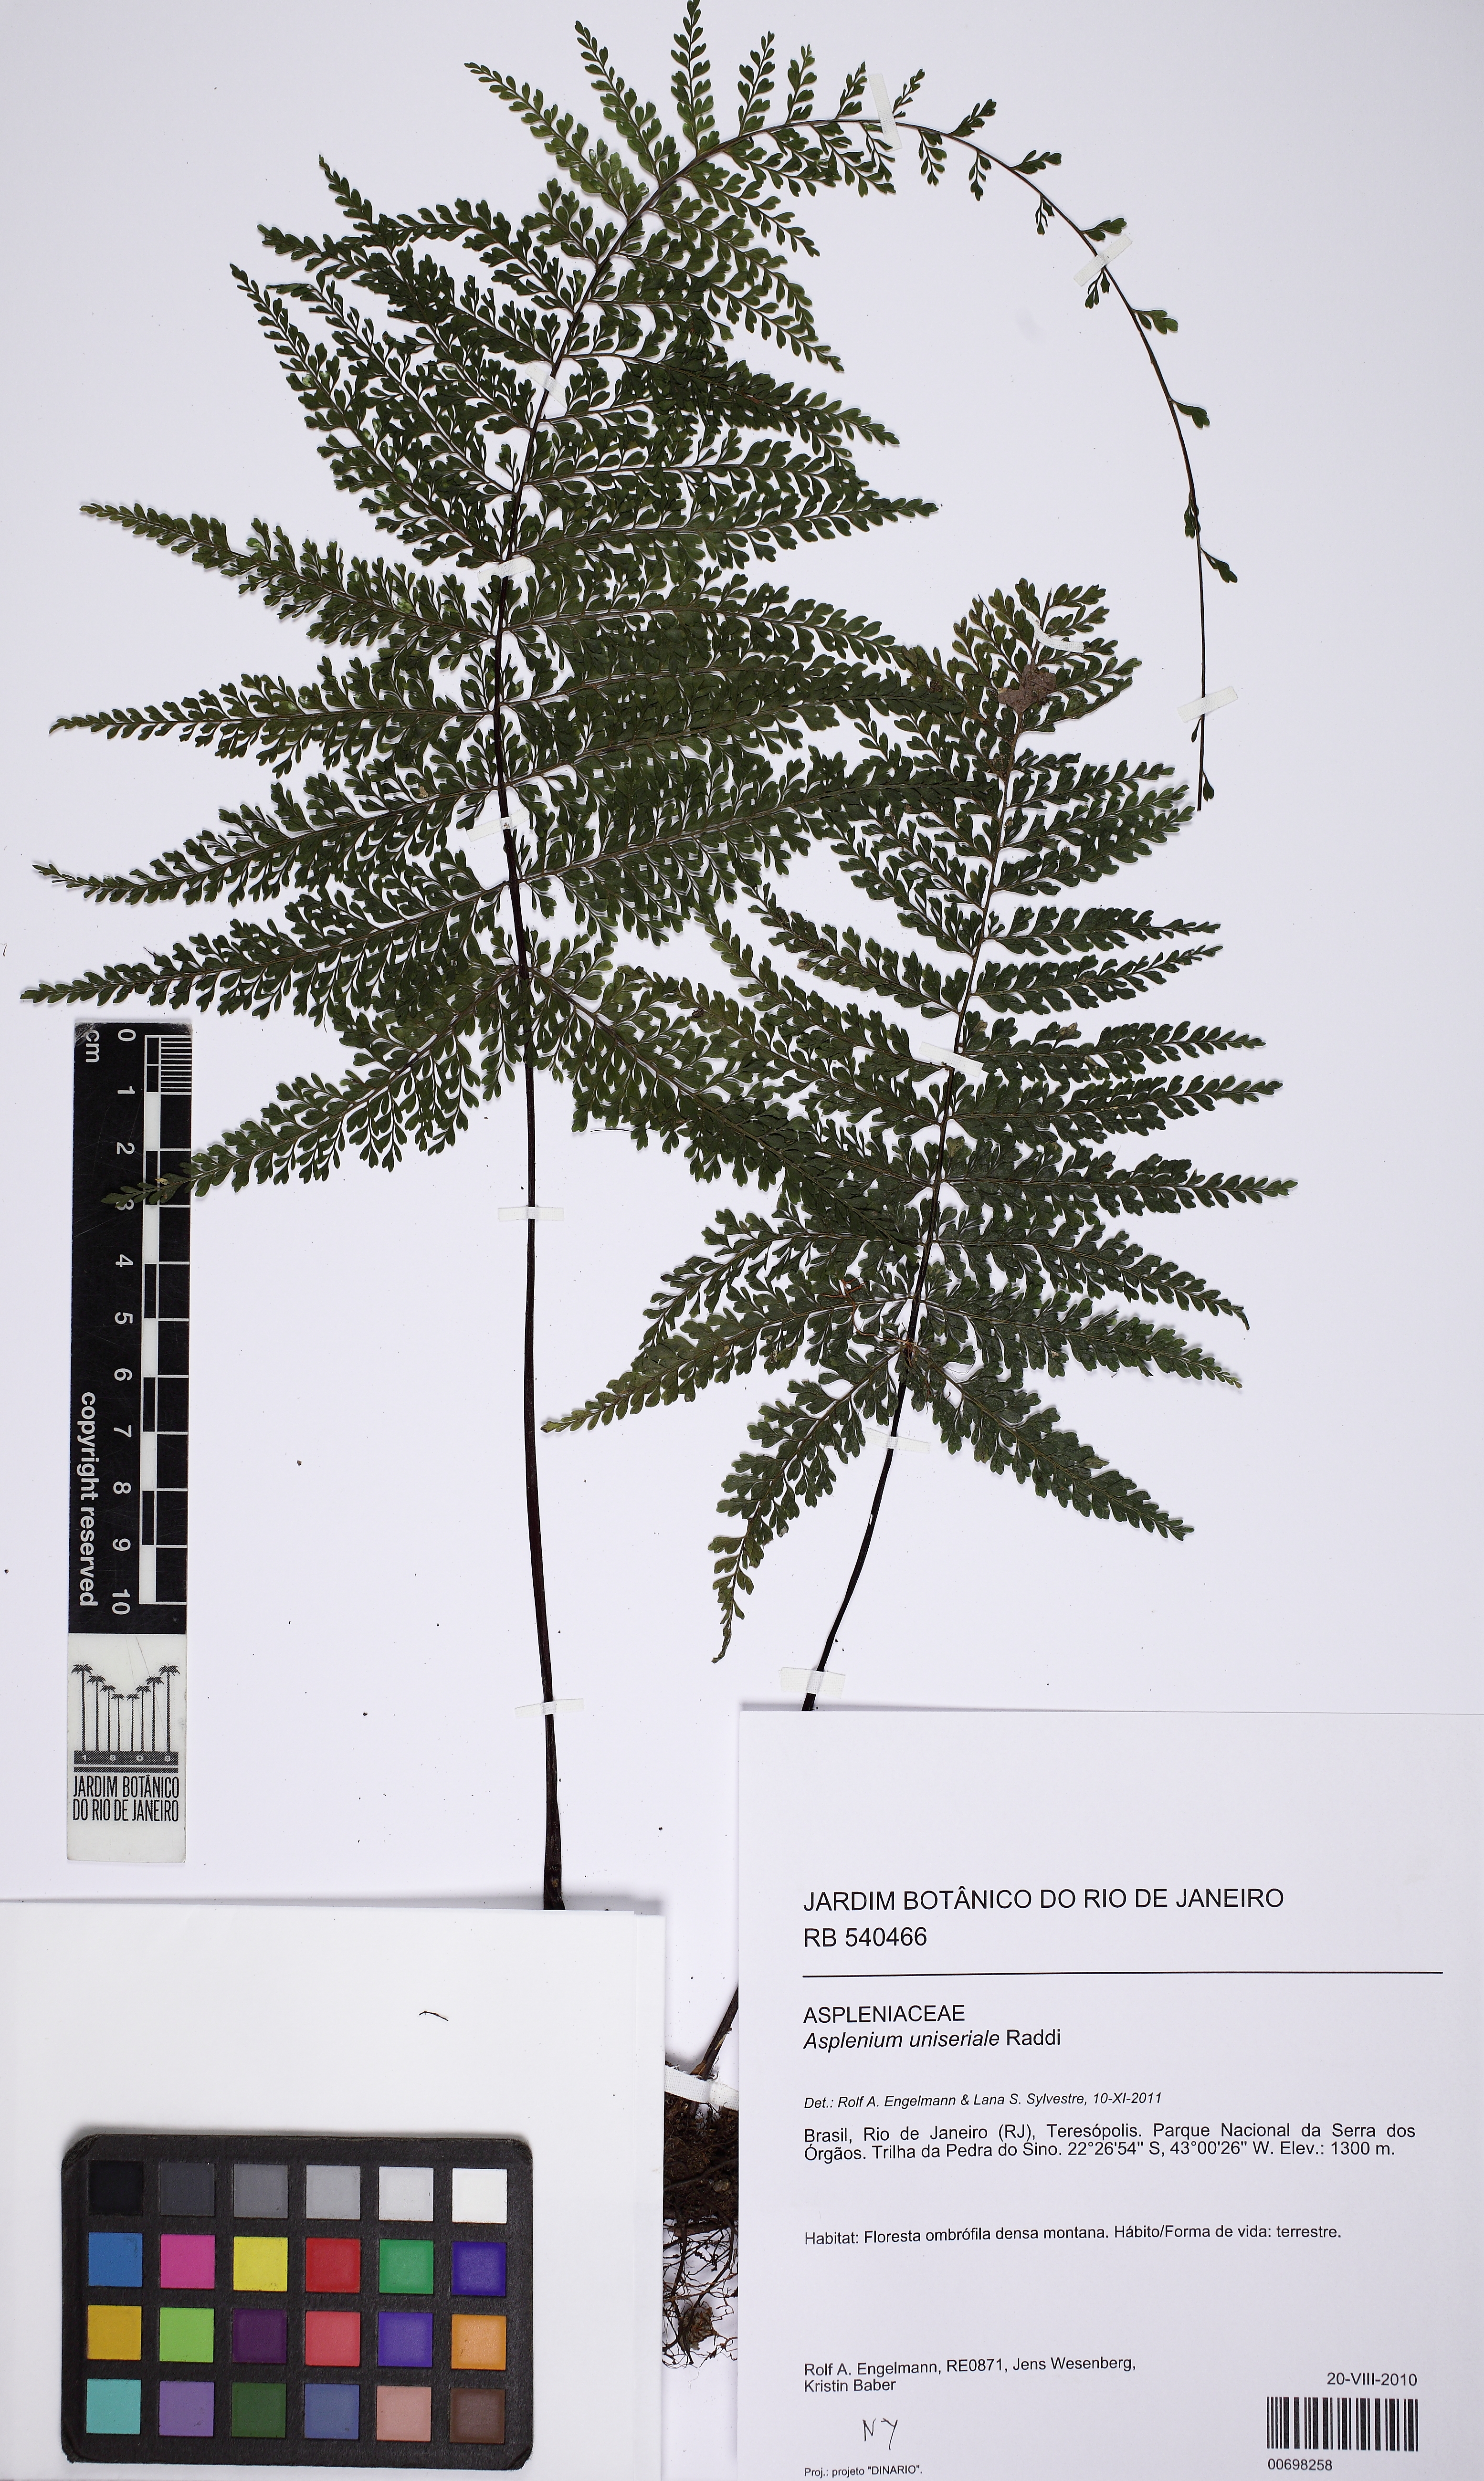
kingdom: Plantae
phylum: Tracheophyta
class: Polypodiopsida
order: Polypodiales
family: Aspleniaceae
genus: Asplenium
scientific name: Asplenium uniseriale
